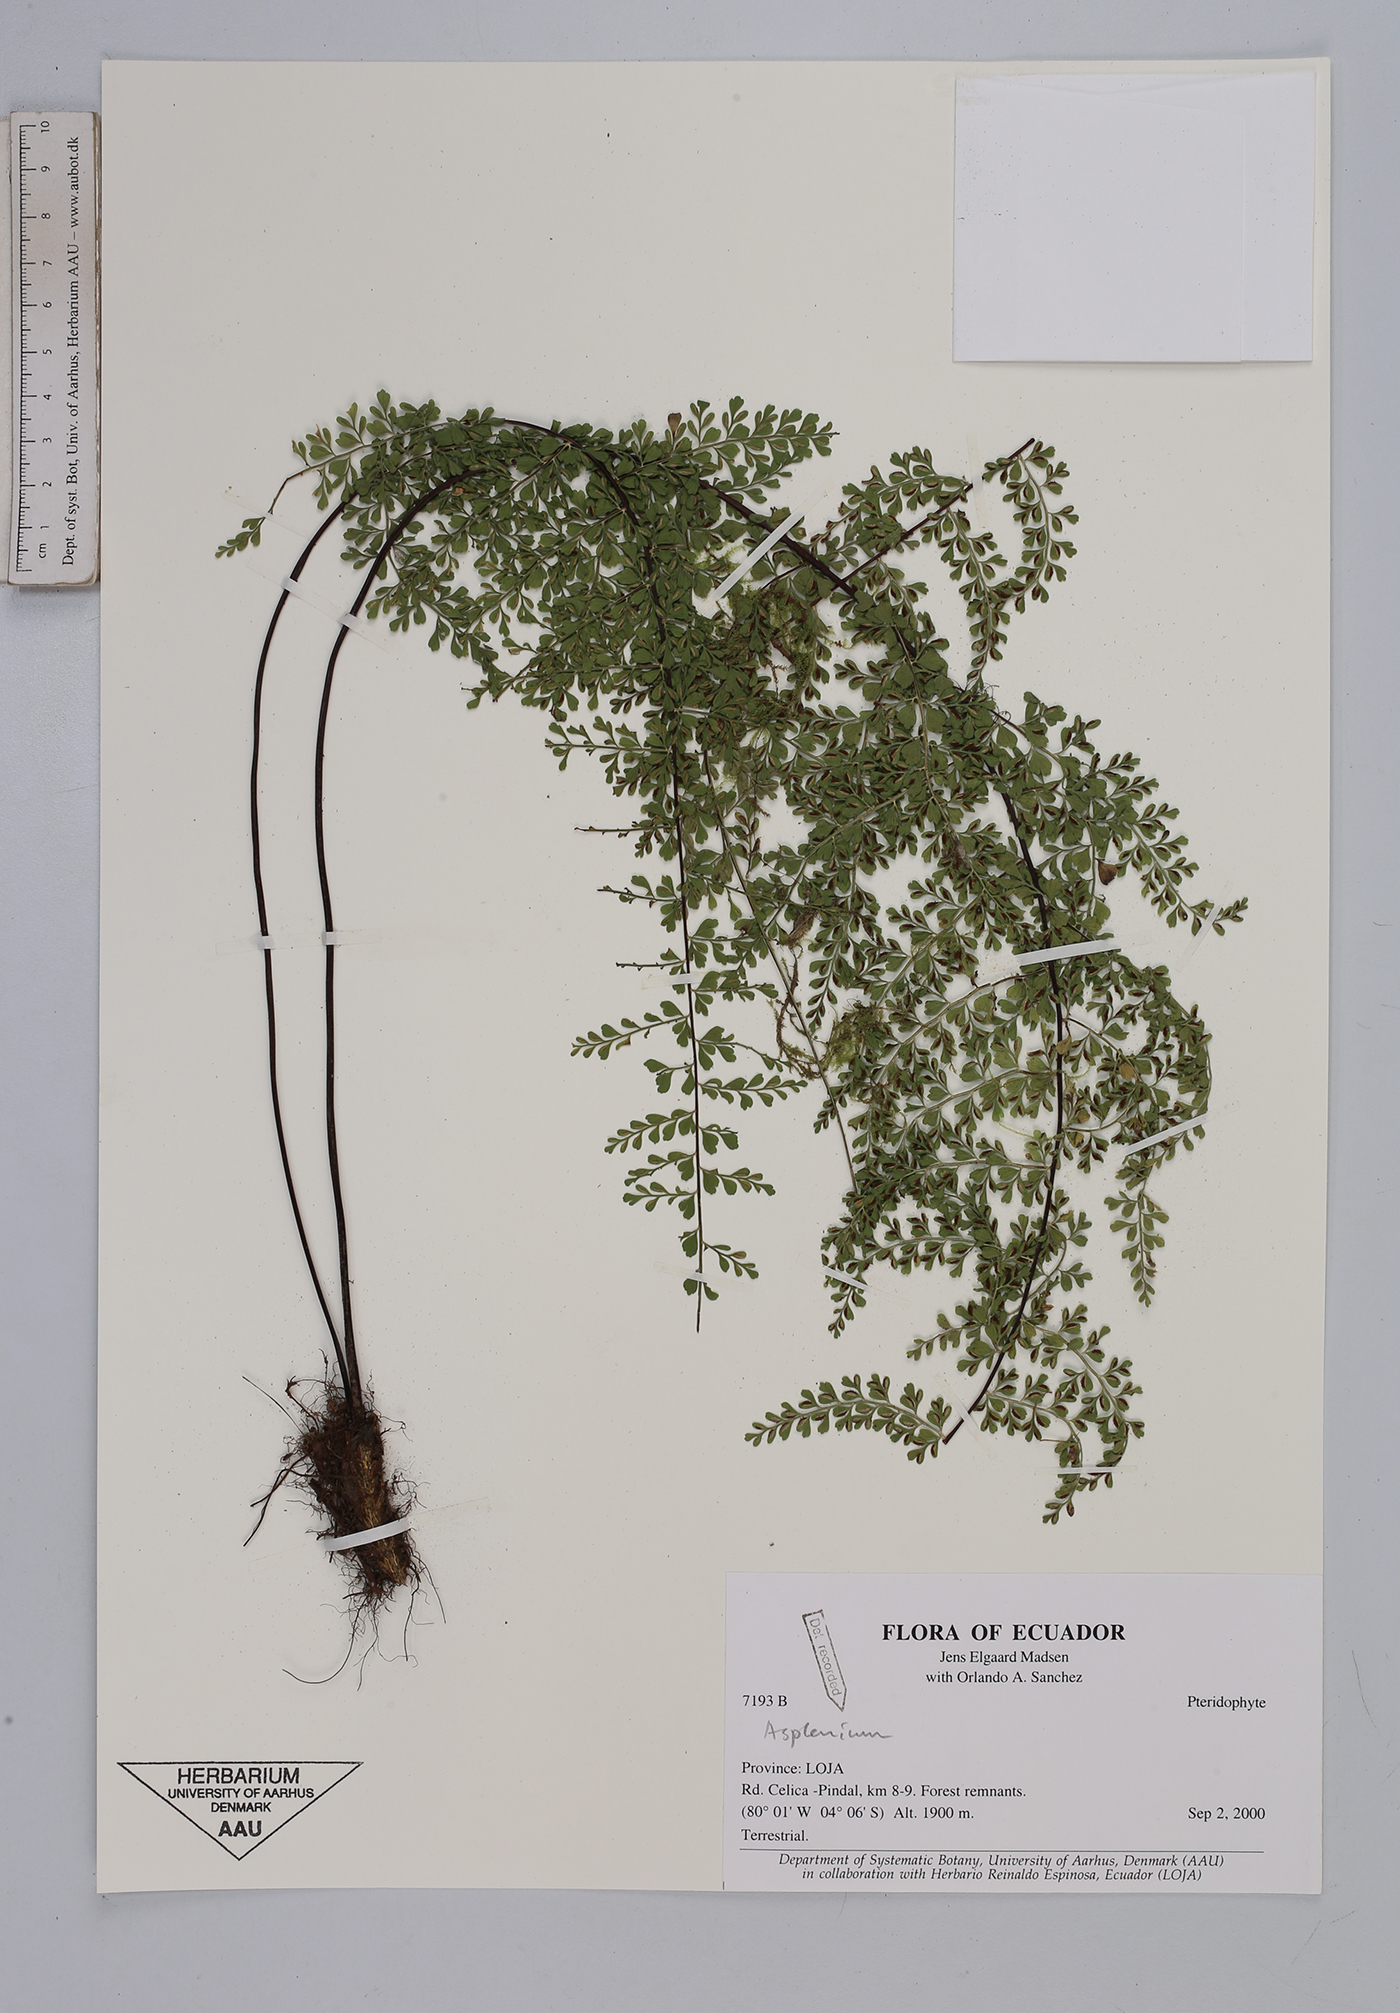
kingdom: Plantae
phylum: Tracheophyta
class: Polypodiopsida
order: Polypodiales
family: Aspleniaceae
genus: Asplenium
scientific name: Asplenium
